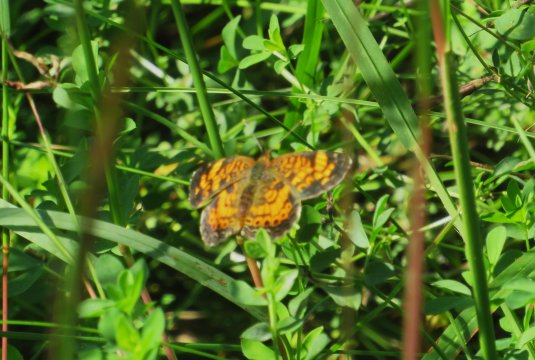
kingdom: Animalia
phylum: Arthropoda
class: Insecta
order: Lepidoptera
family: Nymphalidae
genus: Phyciodes
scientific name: Phyciodes tharos
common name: Pearl Crescent
